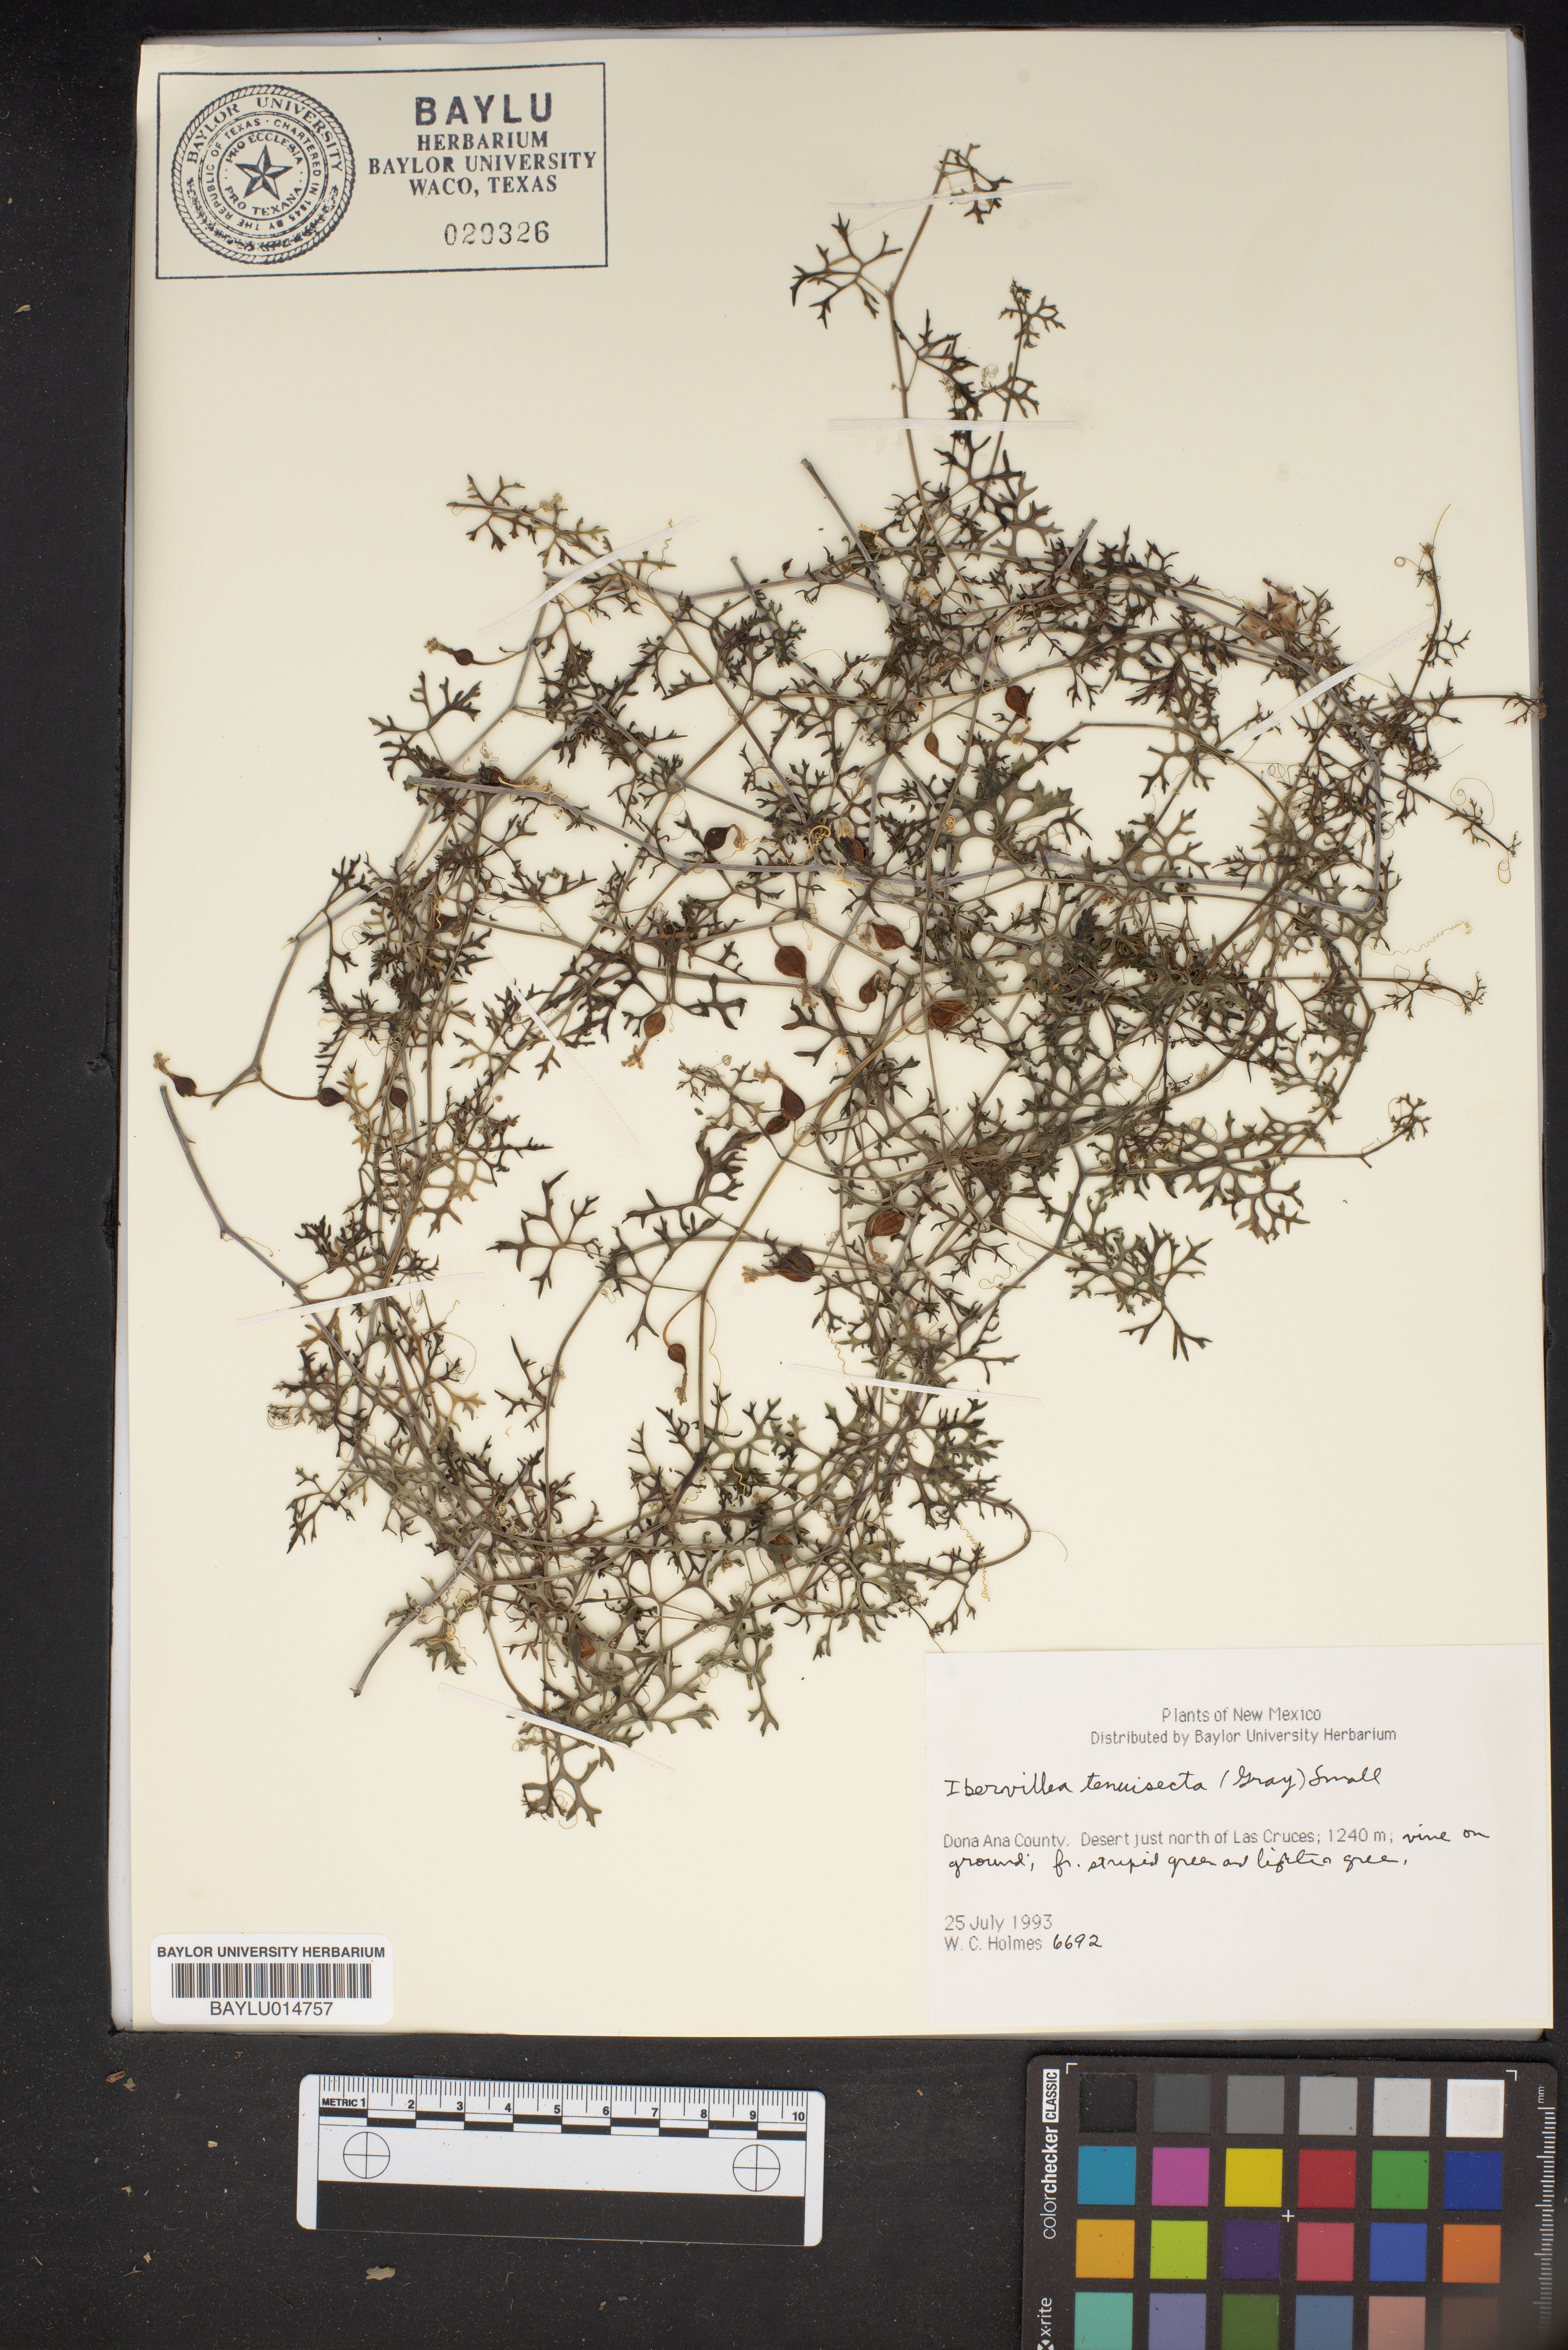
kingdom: Plantae
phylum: Tracheophyta
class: Magnoliopsida
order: Cucurbitales
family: Cucurbitaceae
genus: Ibervillea
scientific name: Ibervillea tenuisecta
